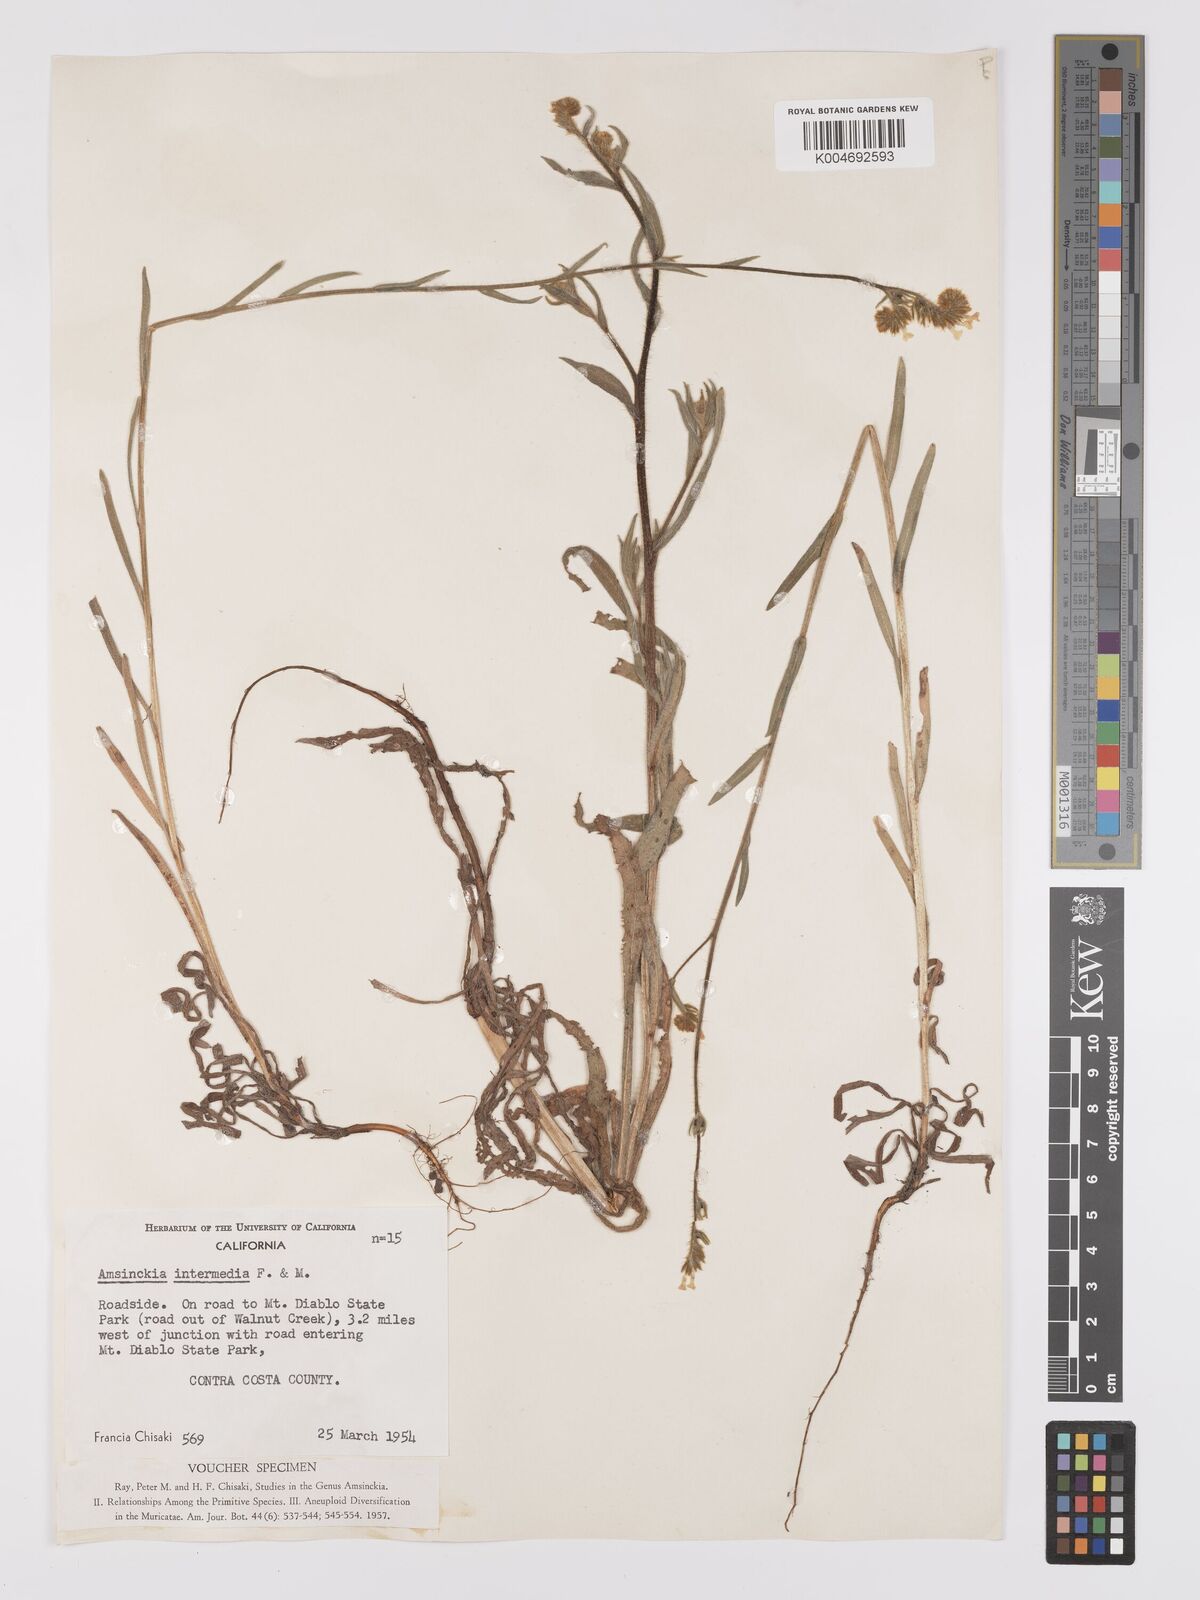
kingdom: Plantae
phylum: Tracheophyta
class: Magnoliopsida
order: Boraginales
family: Boraginaceae
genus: Amsinckia
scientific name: Amsinckia menziesii
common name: Menzies' fiddleneck
